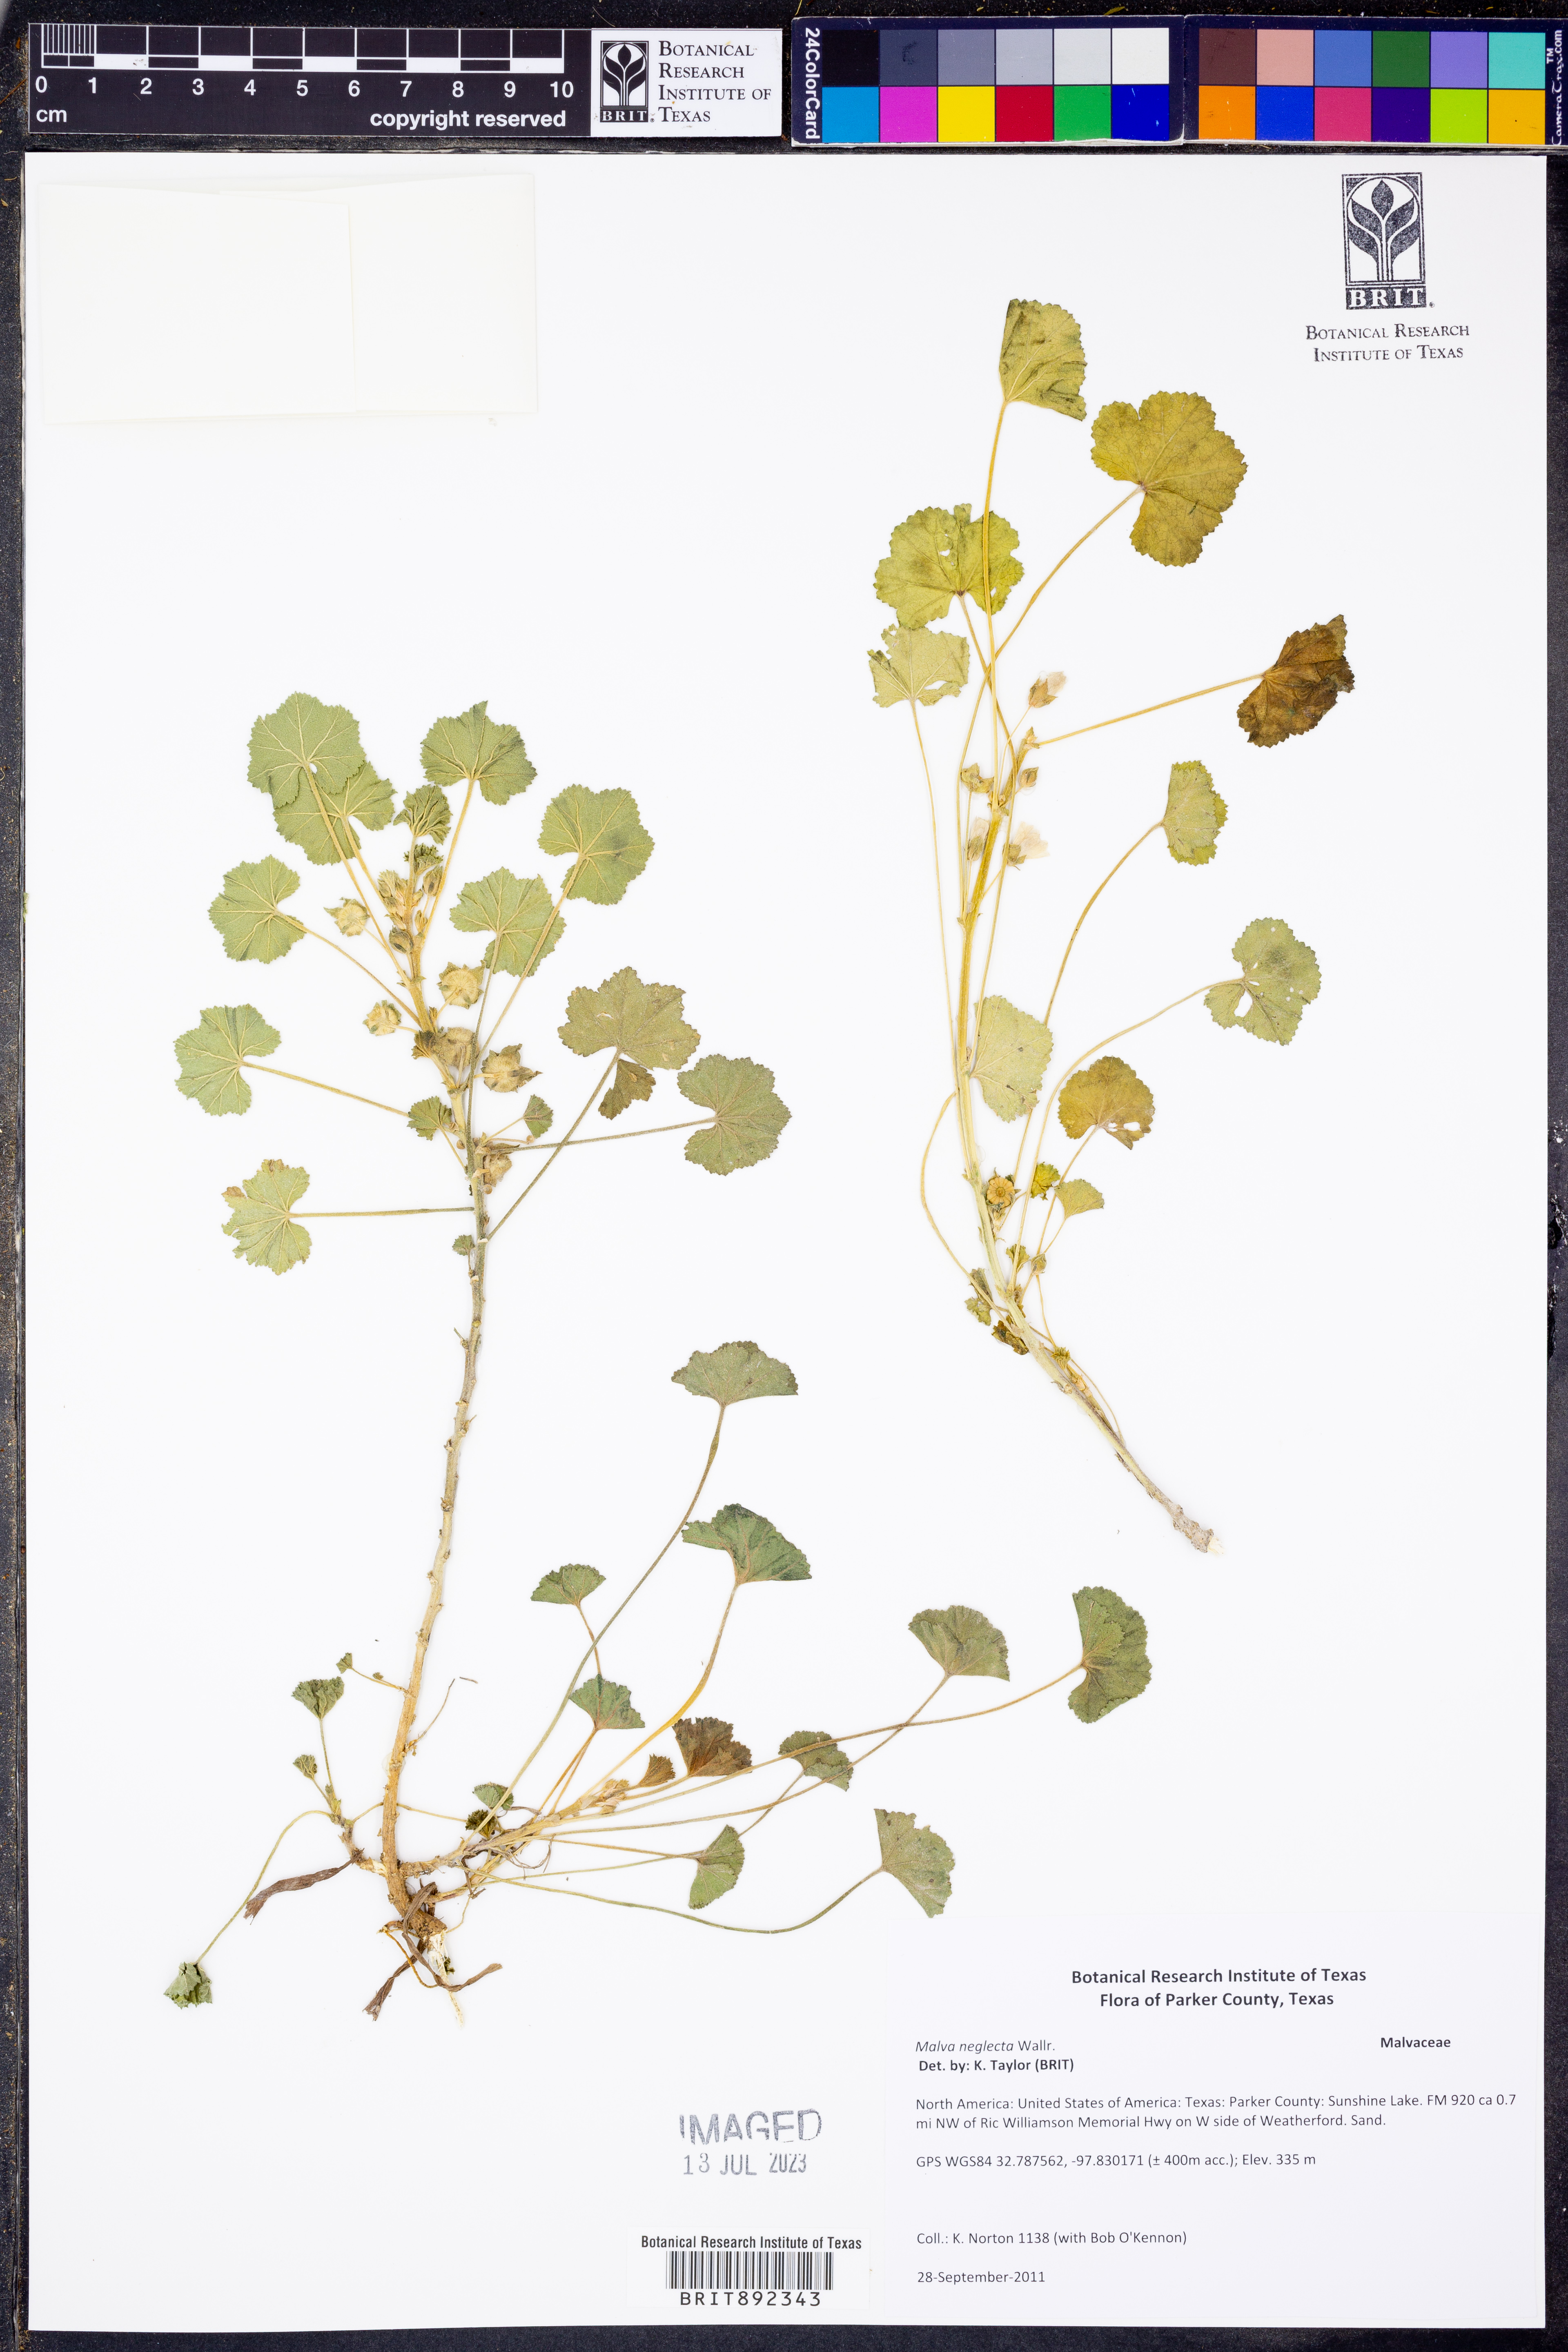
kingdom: Plantae
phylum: Tracheophyta
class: Magnoliopsida
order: Malvales
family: Malvaceae
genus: Malva
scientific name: Malva neglecta
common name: Common mallow
